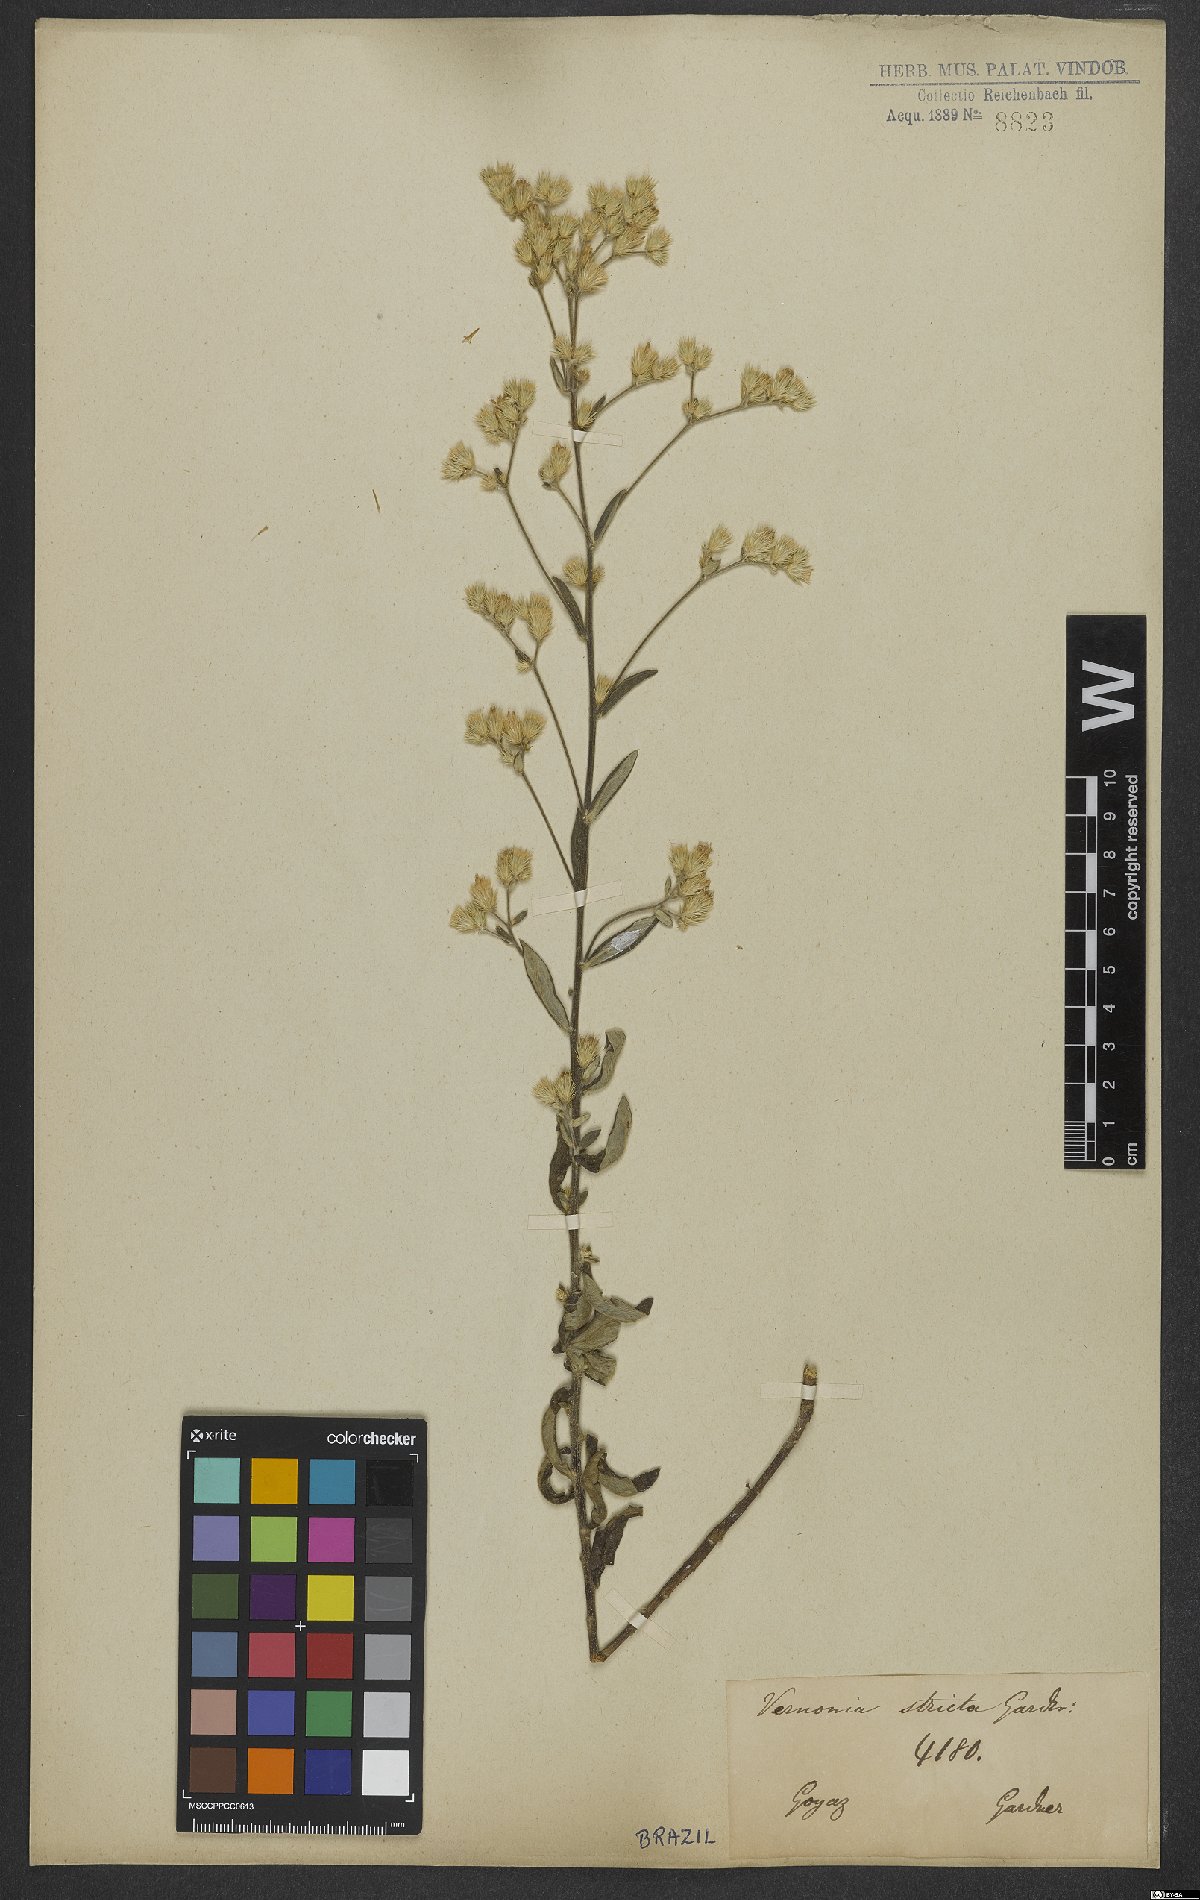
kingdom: Plantae
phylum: Tracheophyta
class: Magnoliopsida
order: Asterales
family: Asteraceae
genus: Echinocoryne
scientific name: Echinocoryne stricta
